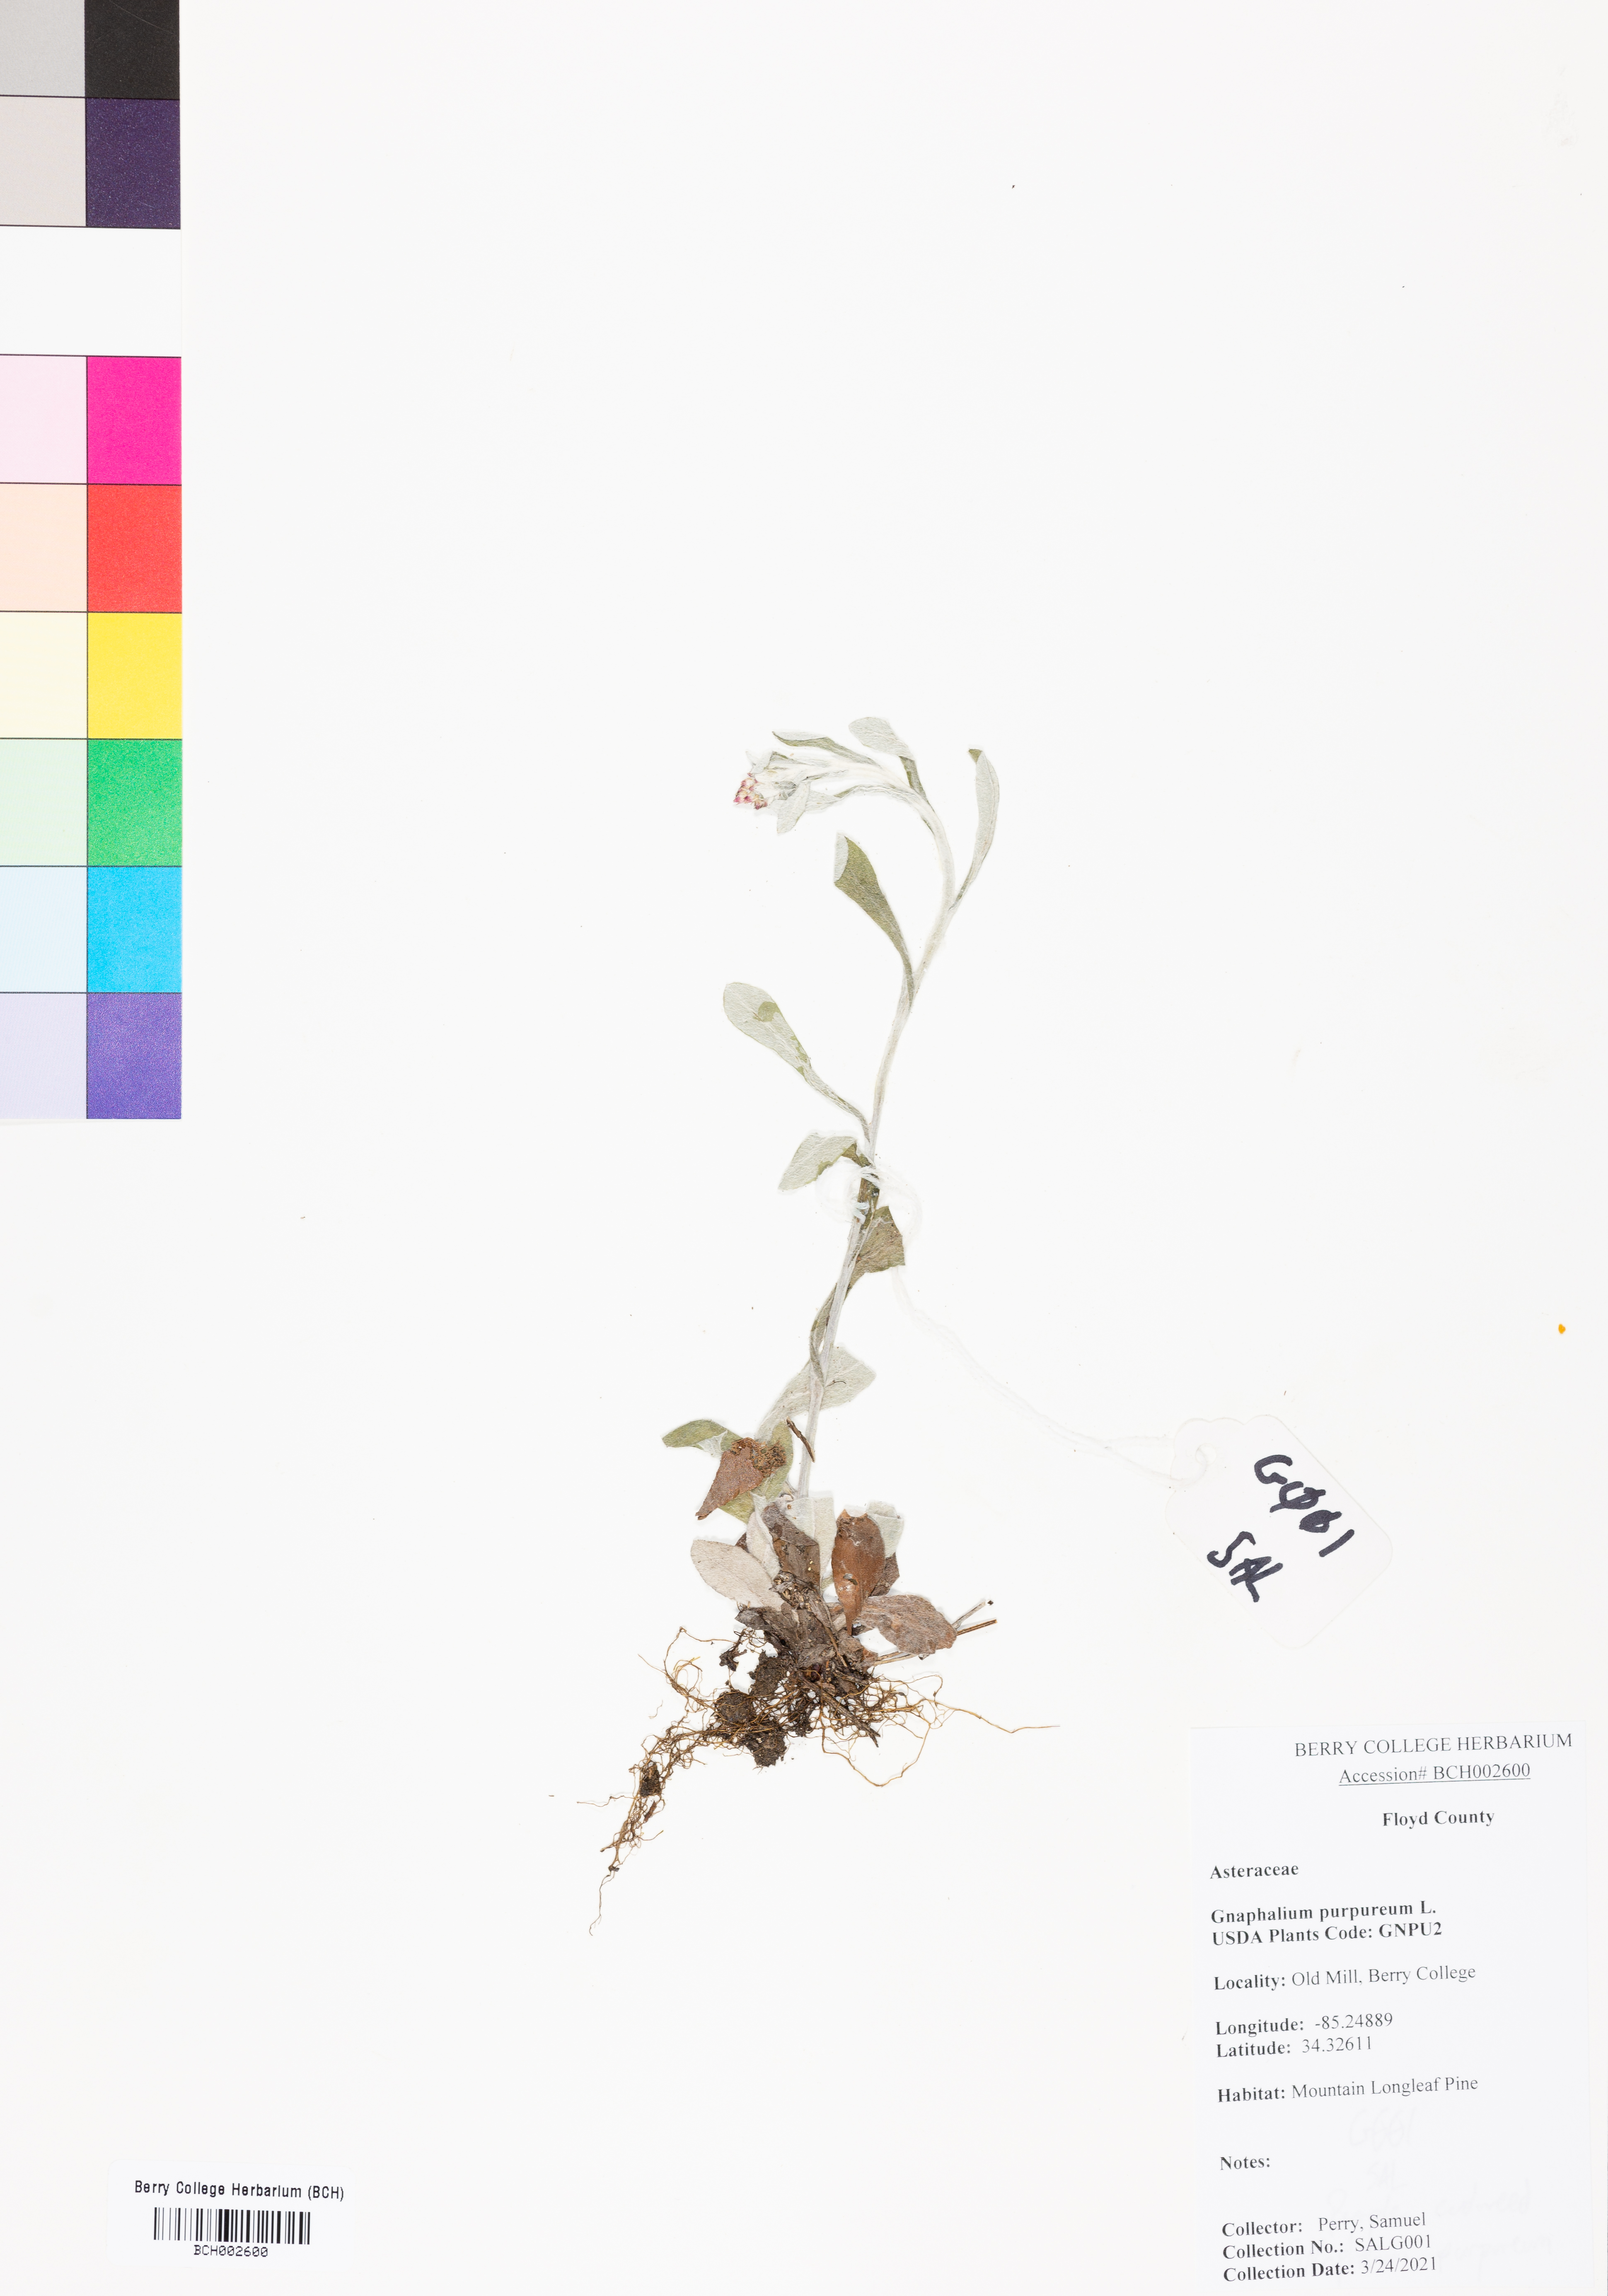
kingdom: Plantae
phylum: Tracheophyta
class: Magnoliopsida
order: Asterales
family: Asteraceae
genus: Gamochaeta
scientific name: Gamochaeta purpurea
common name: Purple cudweed
